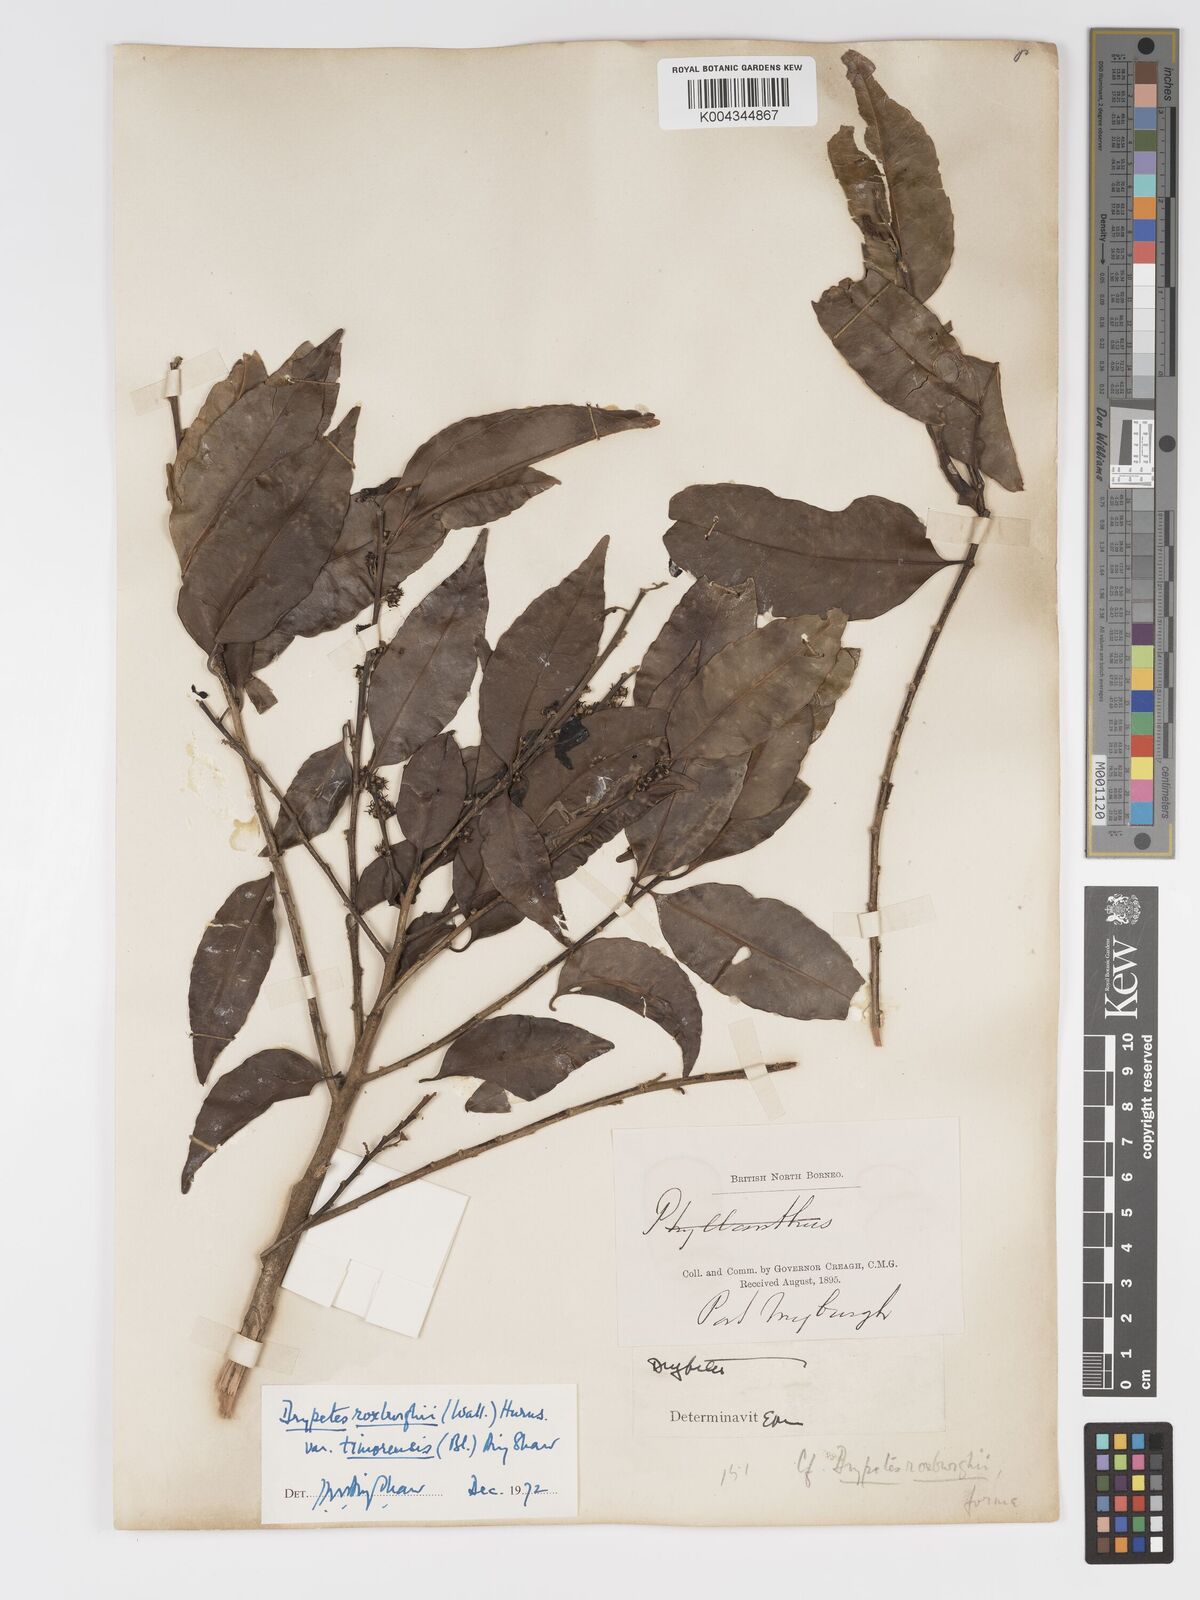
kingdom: Plantae
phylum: Tracheophyta
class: Magnoliopsida
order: Malpighiales
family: Putranjivaceae
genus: Putranjiva
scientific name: Putranjiva roxburghii
